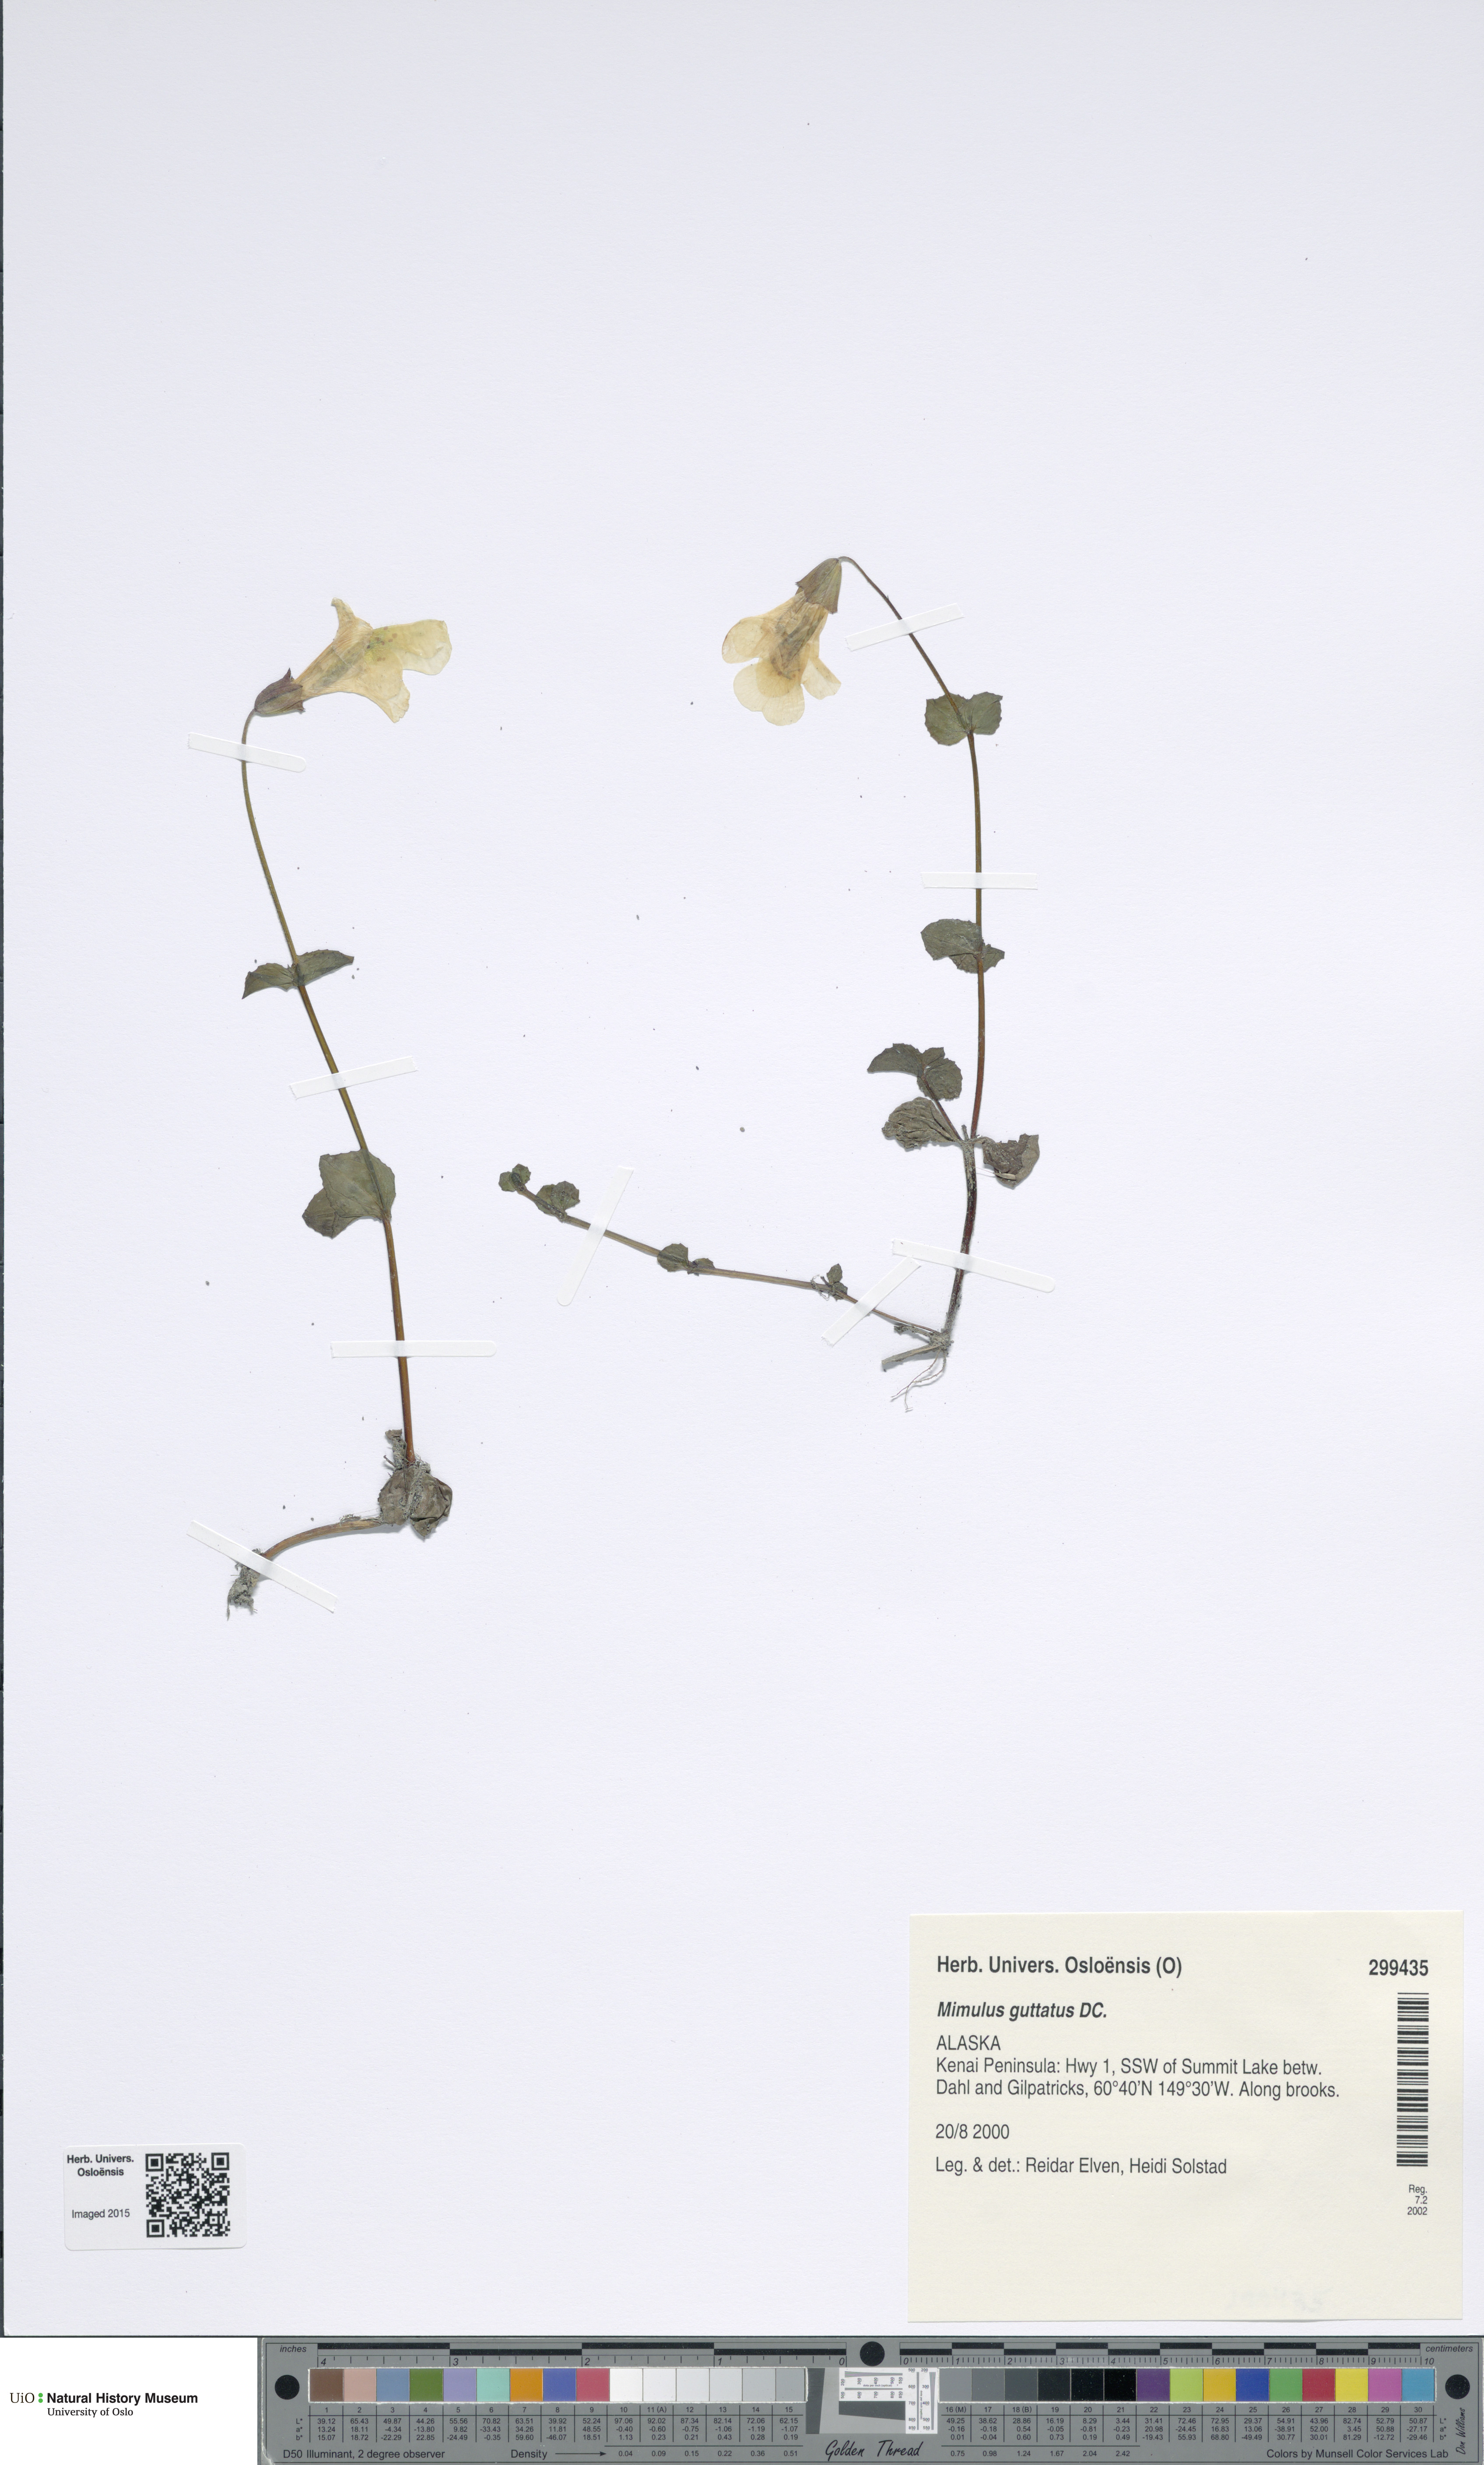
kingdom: Plantae
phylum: Tracheophyta
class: Magnoliopsida
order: Lamiales
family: Phrymaceae
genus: Erythranthe
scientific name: Erythranthe guttata
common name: Monkeyflower
